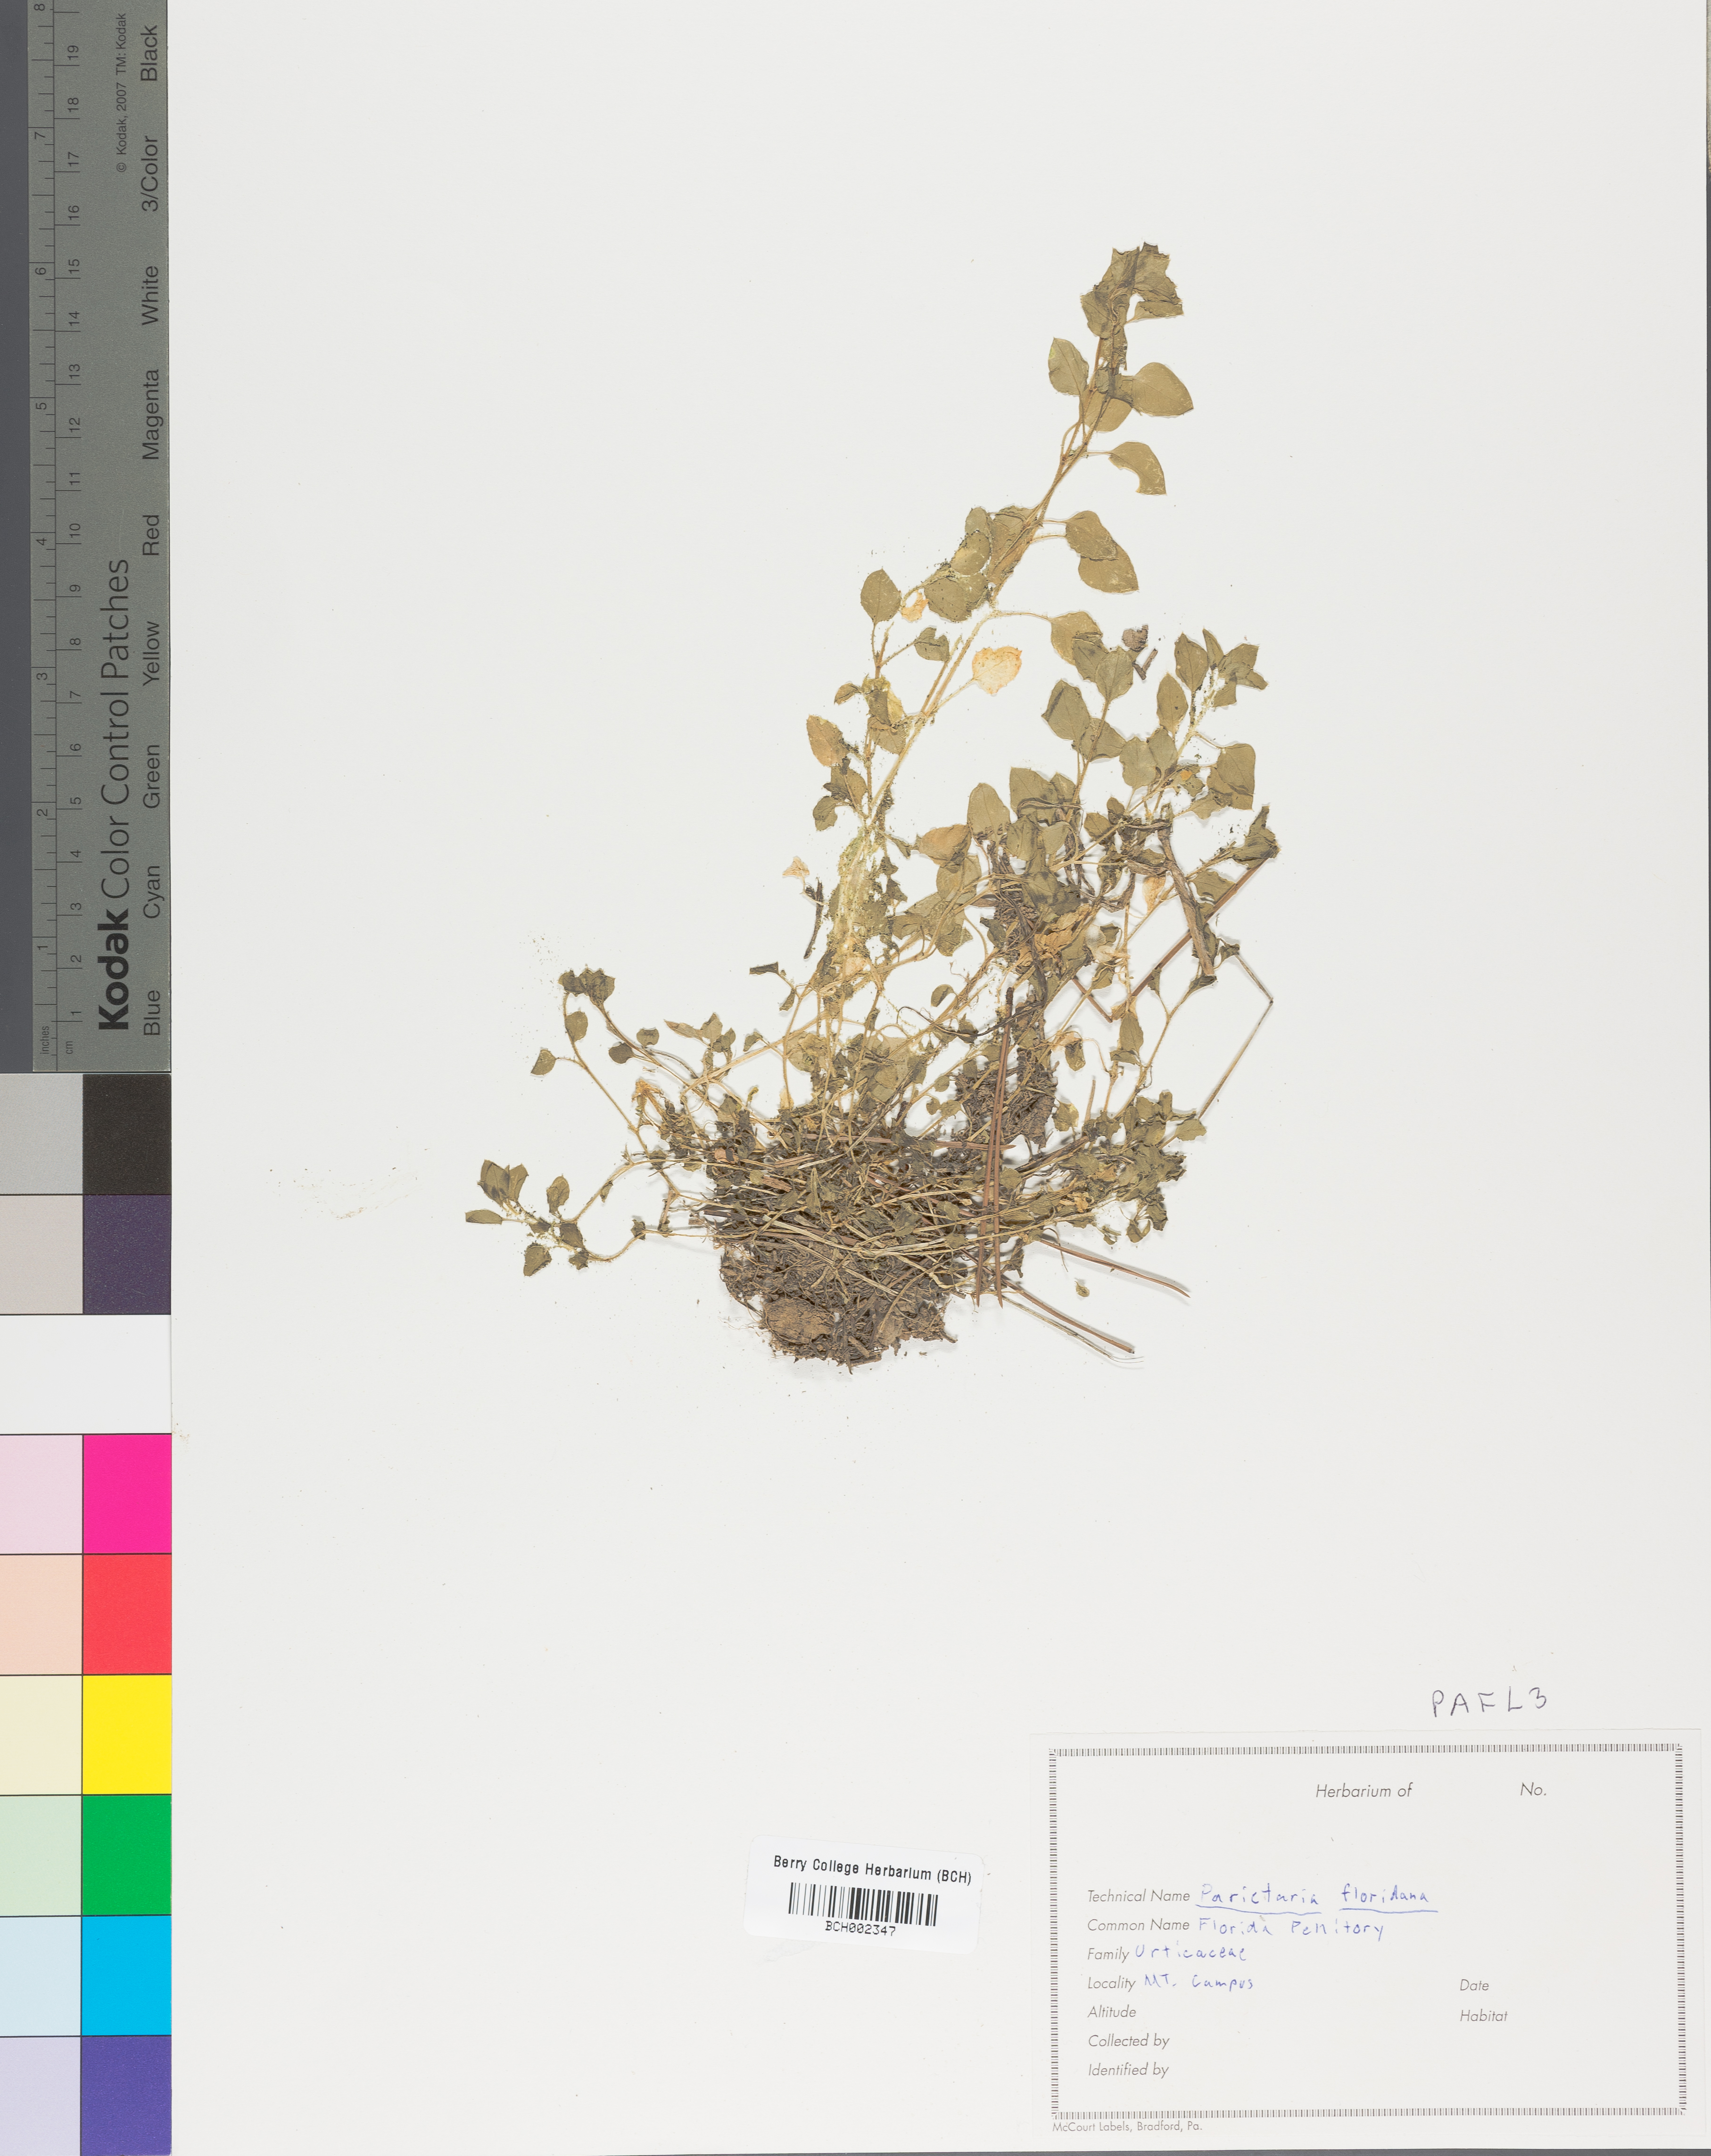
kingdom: Plantae
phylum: Tracheophyta
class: Magnoliopsida
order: Rosales
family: Urticaceae
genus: Parietaria
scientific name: Parietaria floridana
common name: Florida pellitory
